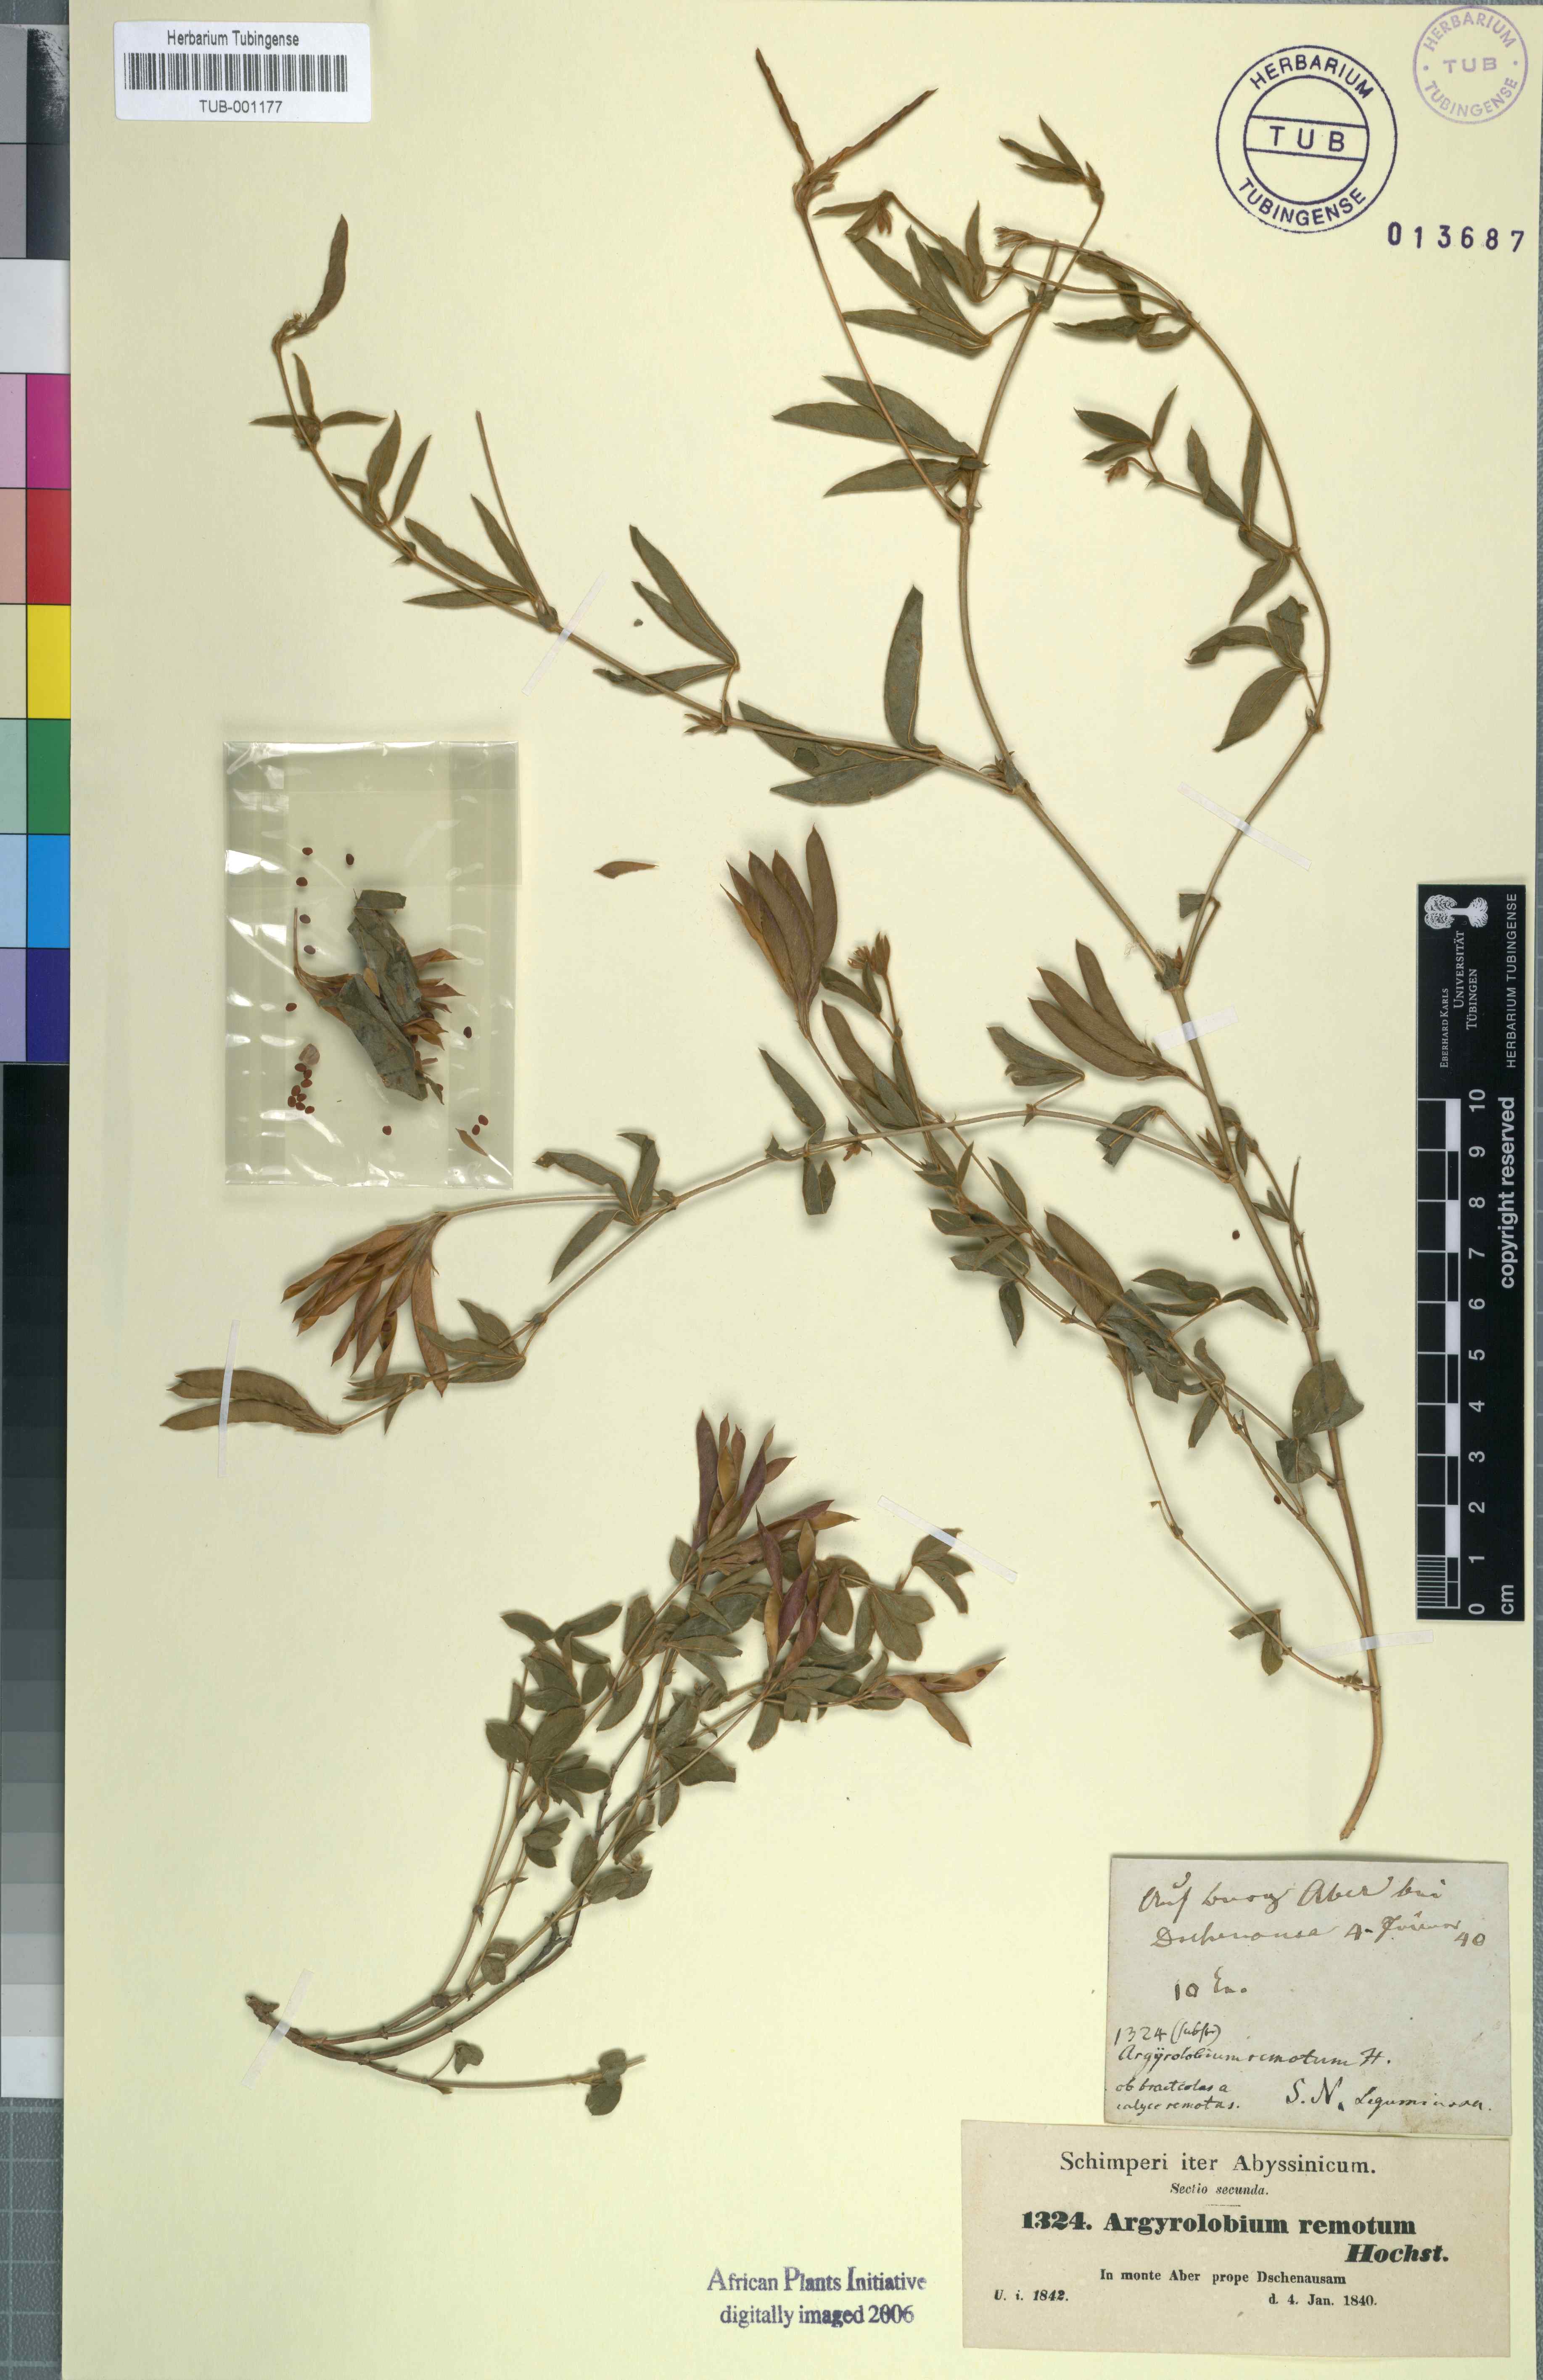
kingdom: Plantae
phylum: Tracheophyta
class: Magnoliopsida
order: Fabales
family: Fabaceae
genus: Argyrolobium
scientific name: Argyrolobium rupestre
